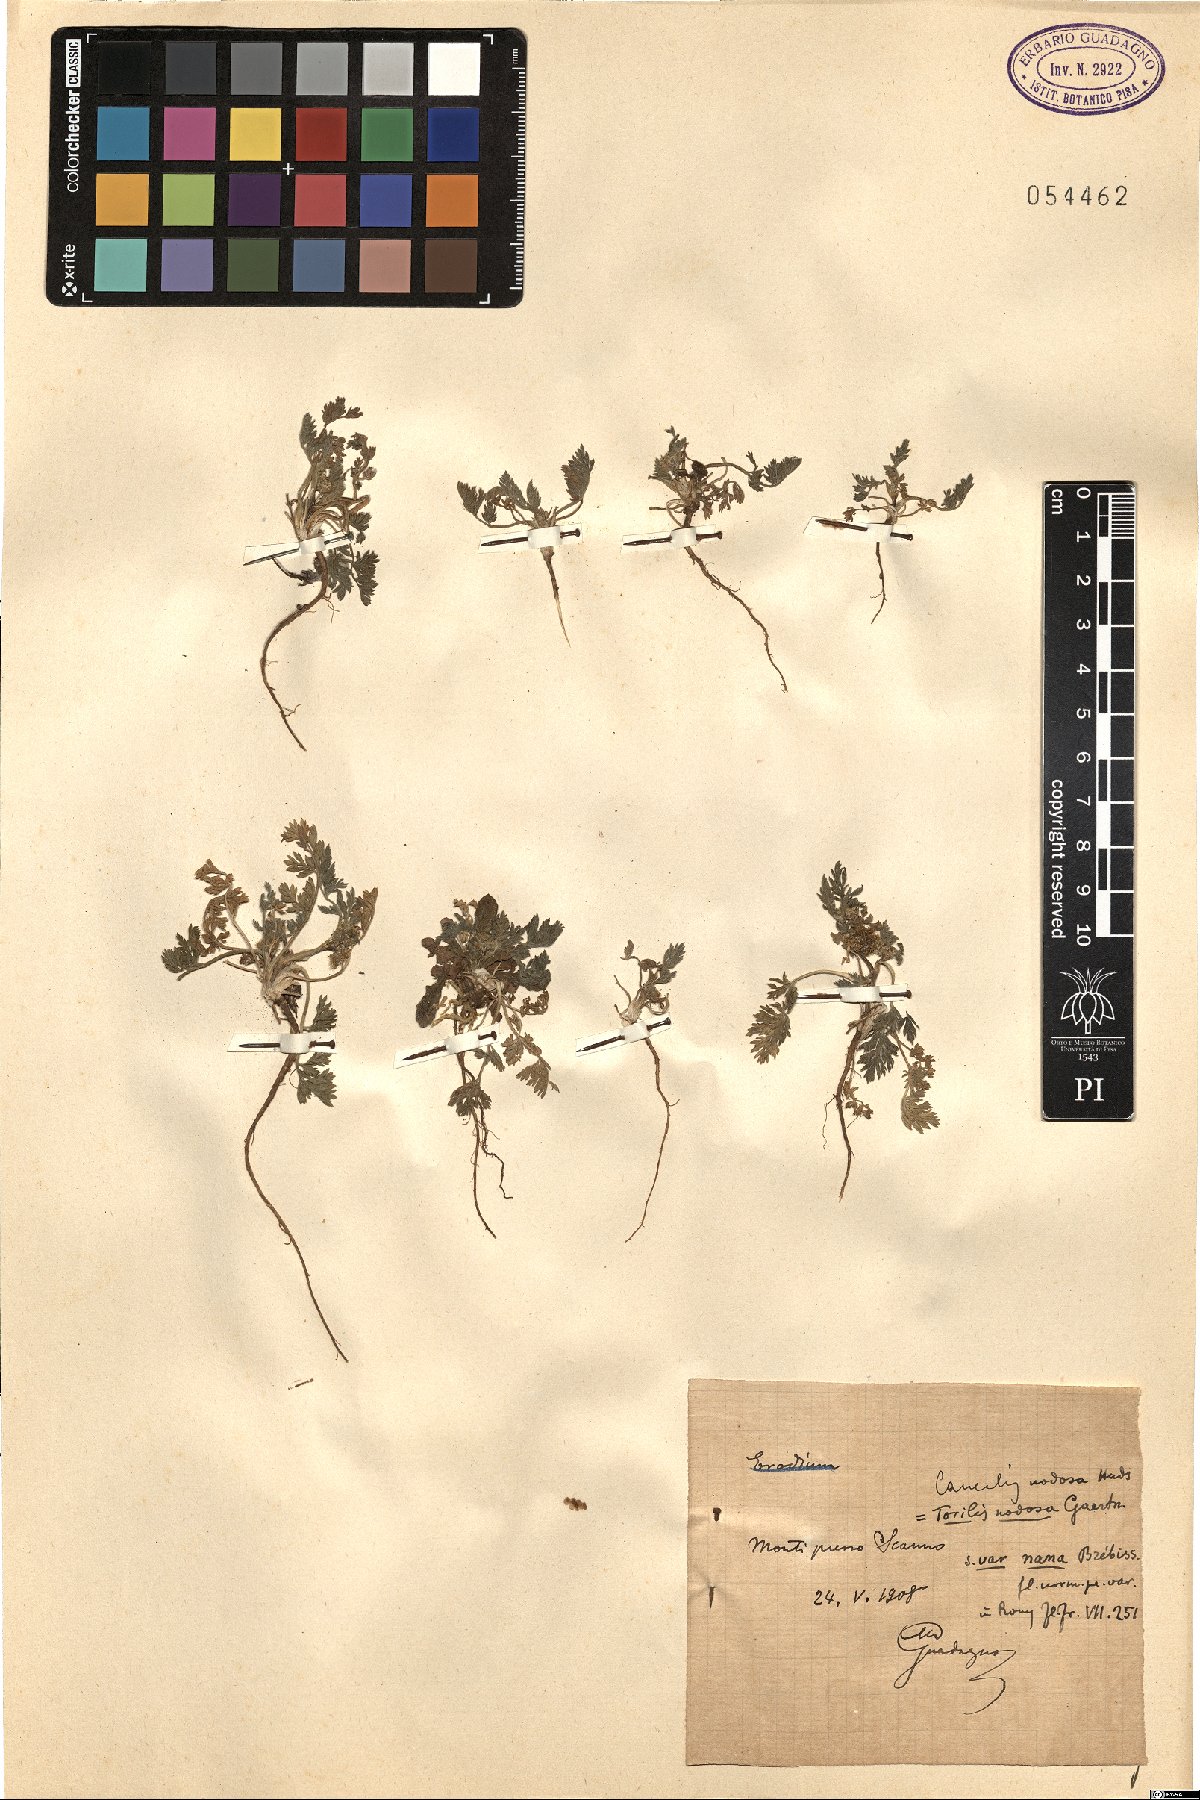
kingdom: Plantae
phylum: Tracheophyta
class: Magnoliopsida
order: Apiales
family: Apiaceae
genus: Torilis
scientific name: Torilis nodosa
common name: Knotted hedge-parsley
